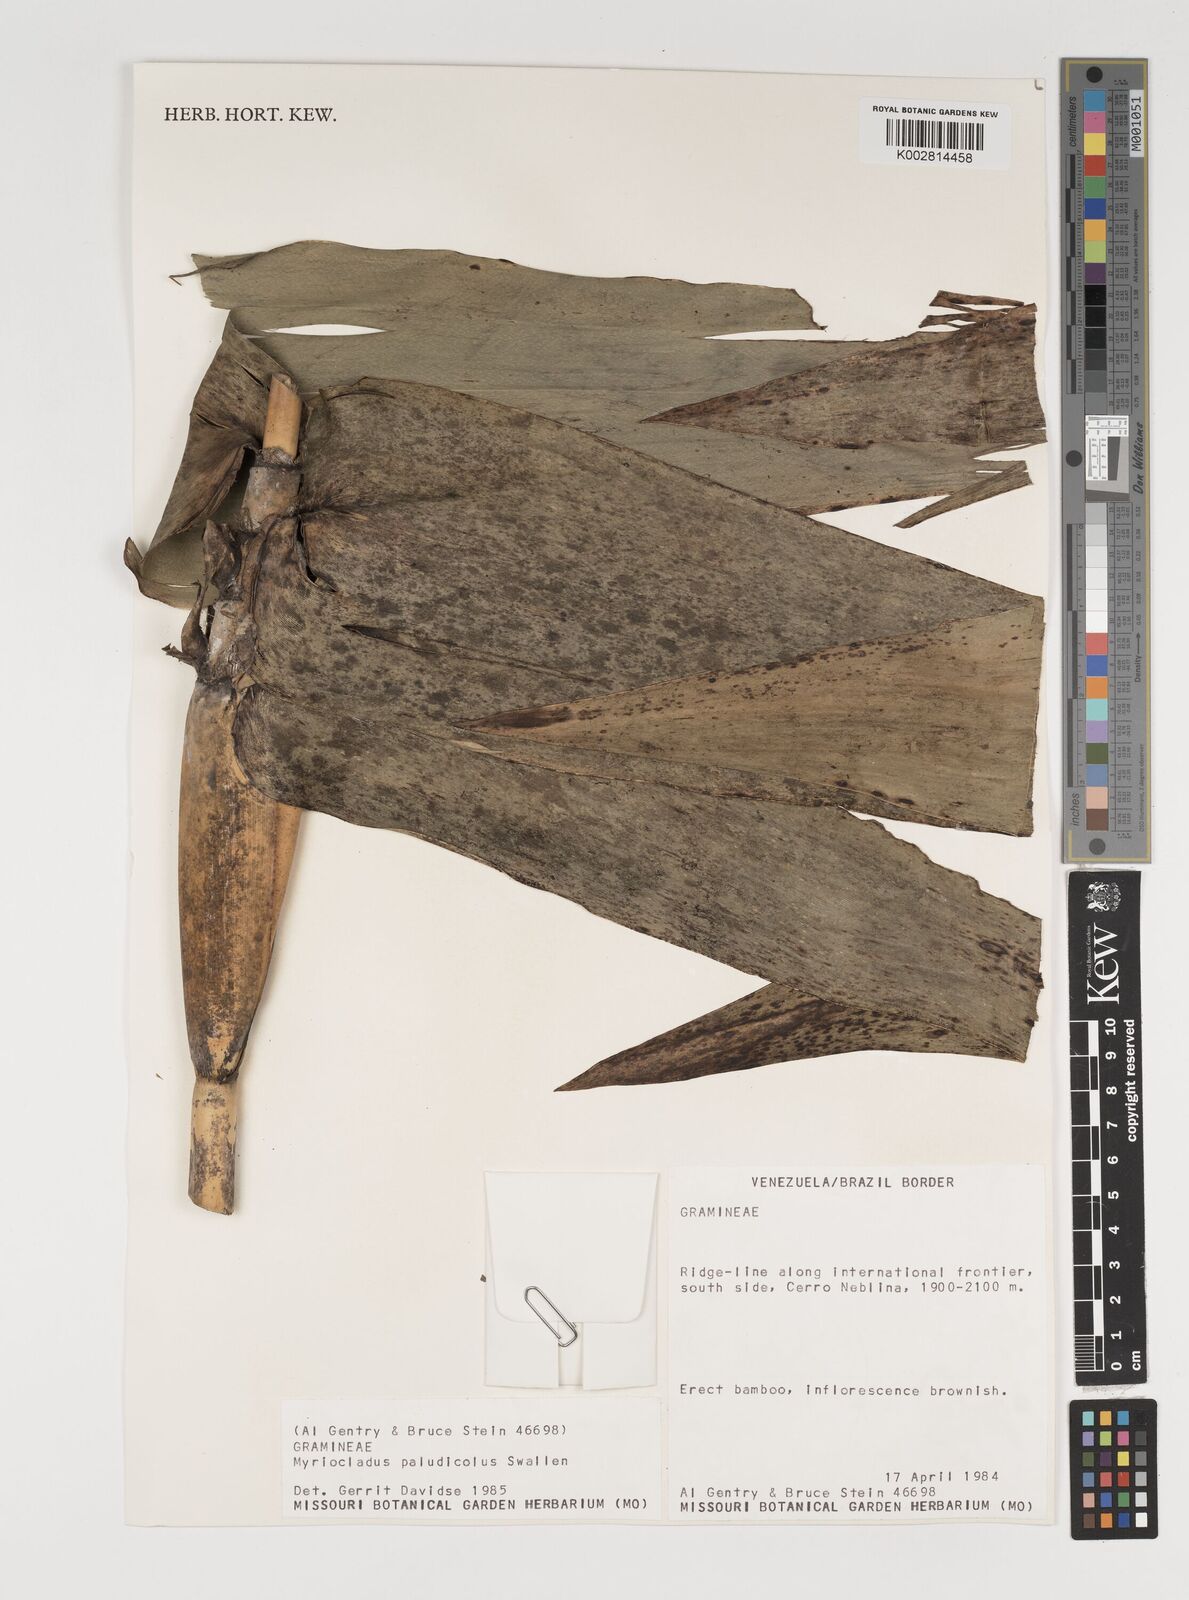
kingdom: Plantae
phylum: Tracheophyta
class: Liliopsida
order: Poales
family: Poaceae
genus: Myriocladus
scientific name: Myriocladus paludicola
